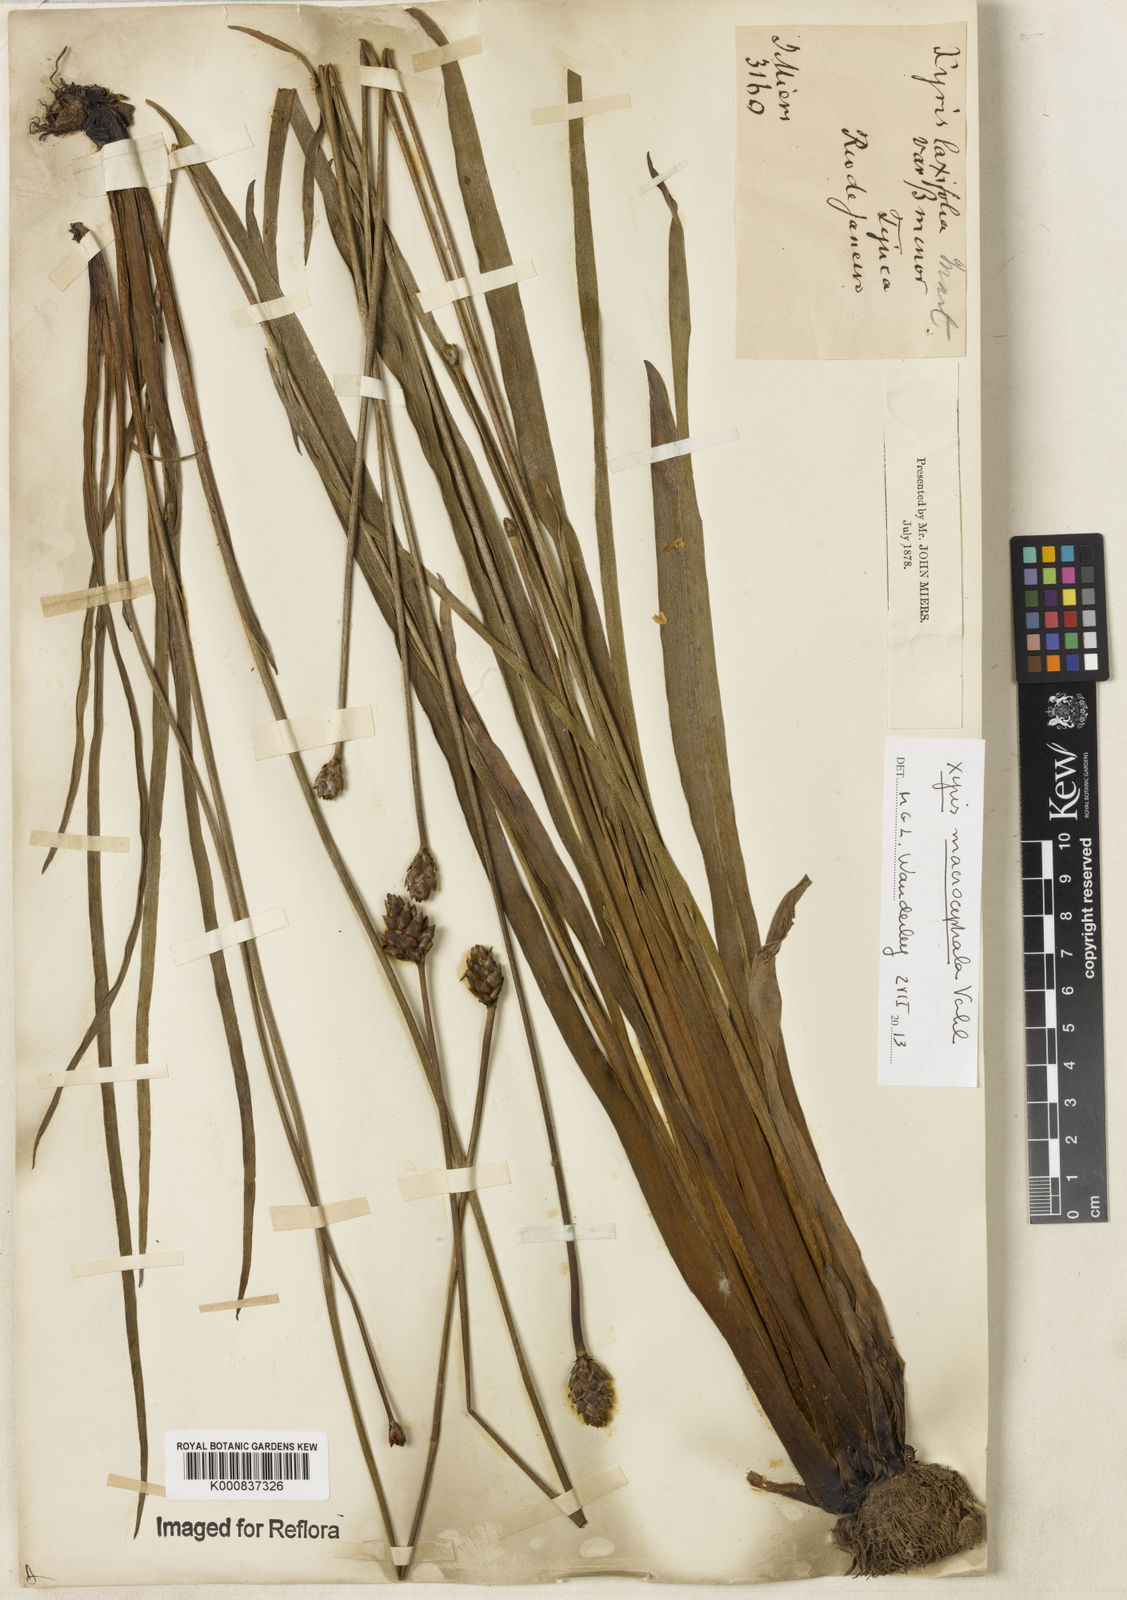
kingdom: Plantae
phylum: Tracheophyta
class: Liliopsida
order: Poales
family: Xyridaceae
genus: Xyris
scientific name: Xyris jupicai
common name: Richard's yelloweyed grass
